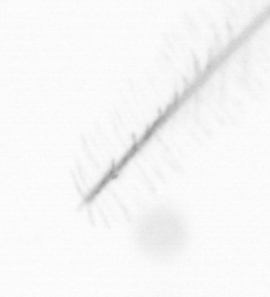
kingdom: Chromista
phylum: Ochrophyta
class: Bacillariophyceae
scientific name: Bacillariophyceae
